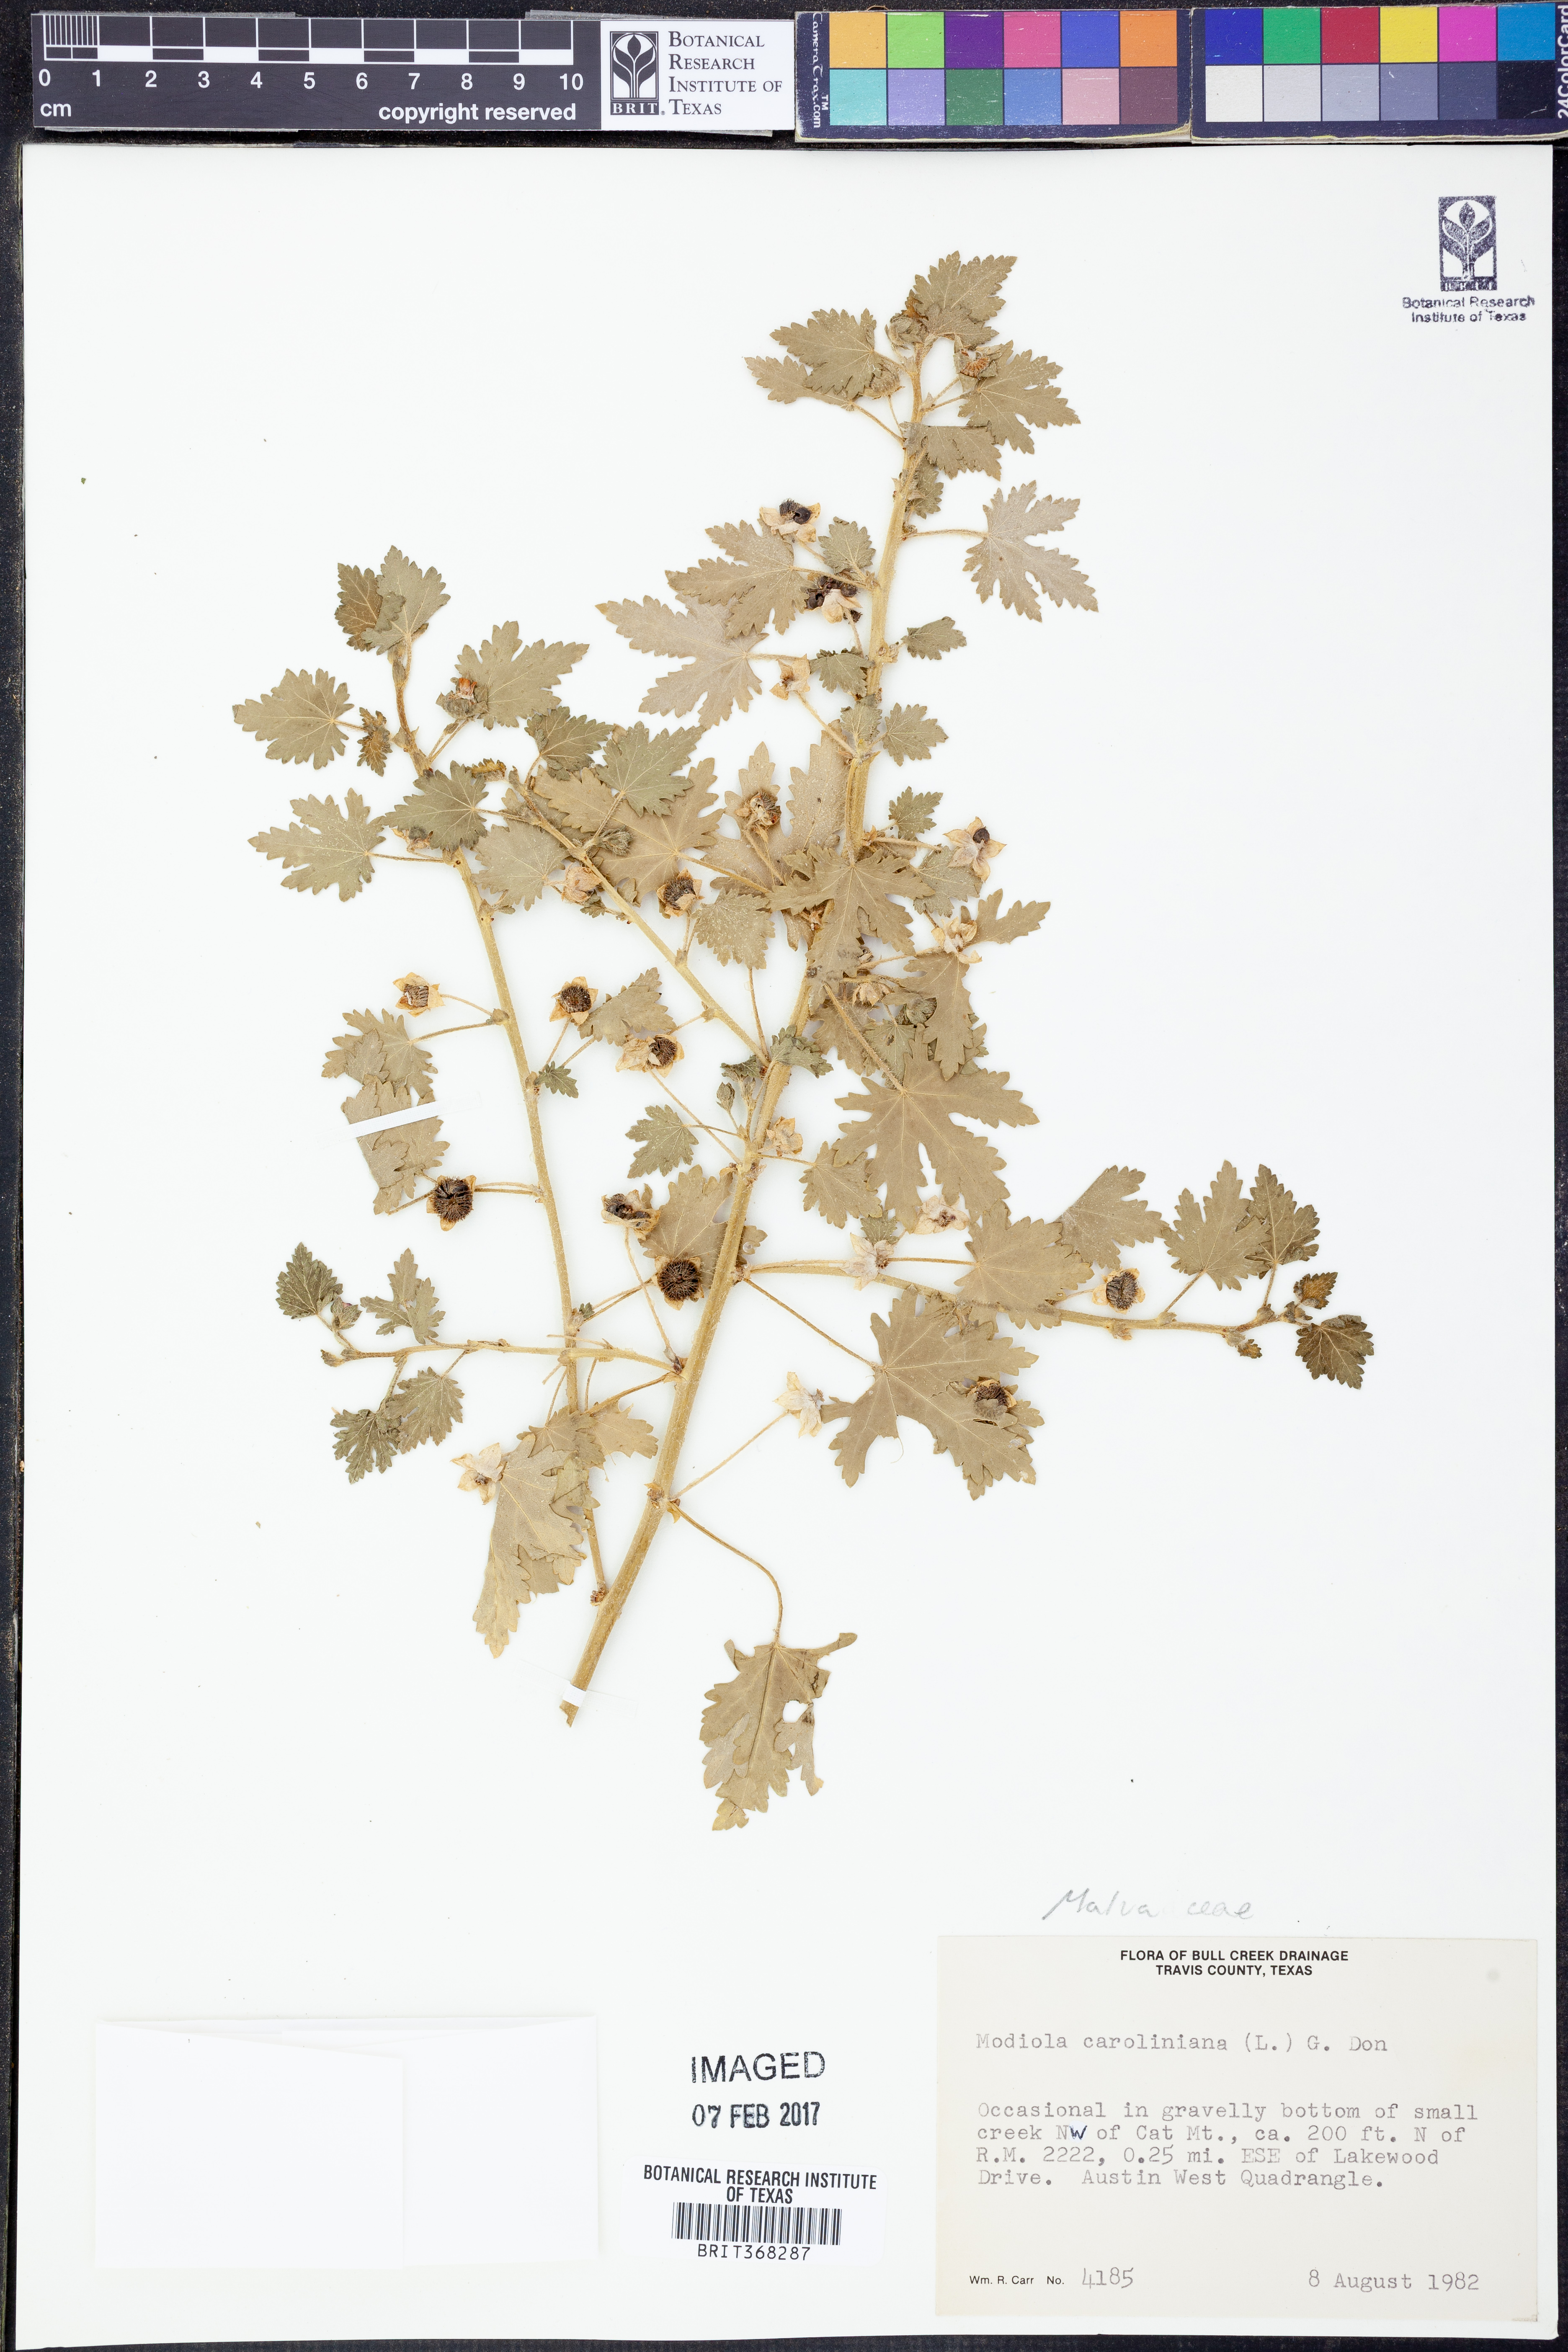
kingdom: Plantae
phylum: Tracheophyta
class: Magnoliopsida
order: Malvales
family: Malvaceae
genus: Modiola
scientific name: Modiola caroliniana
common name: Carolina bristlemallow
